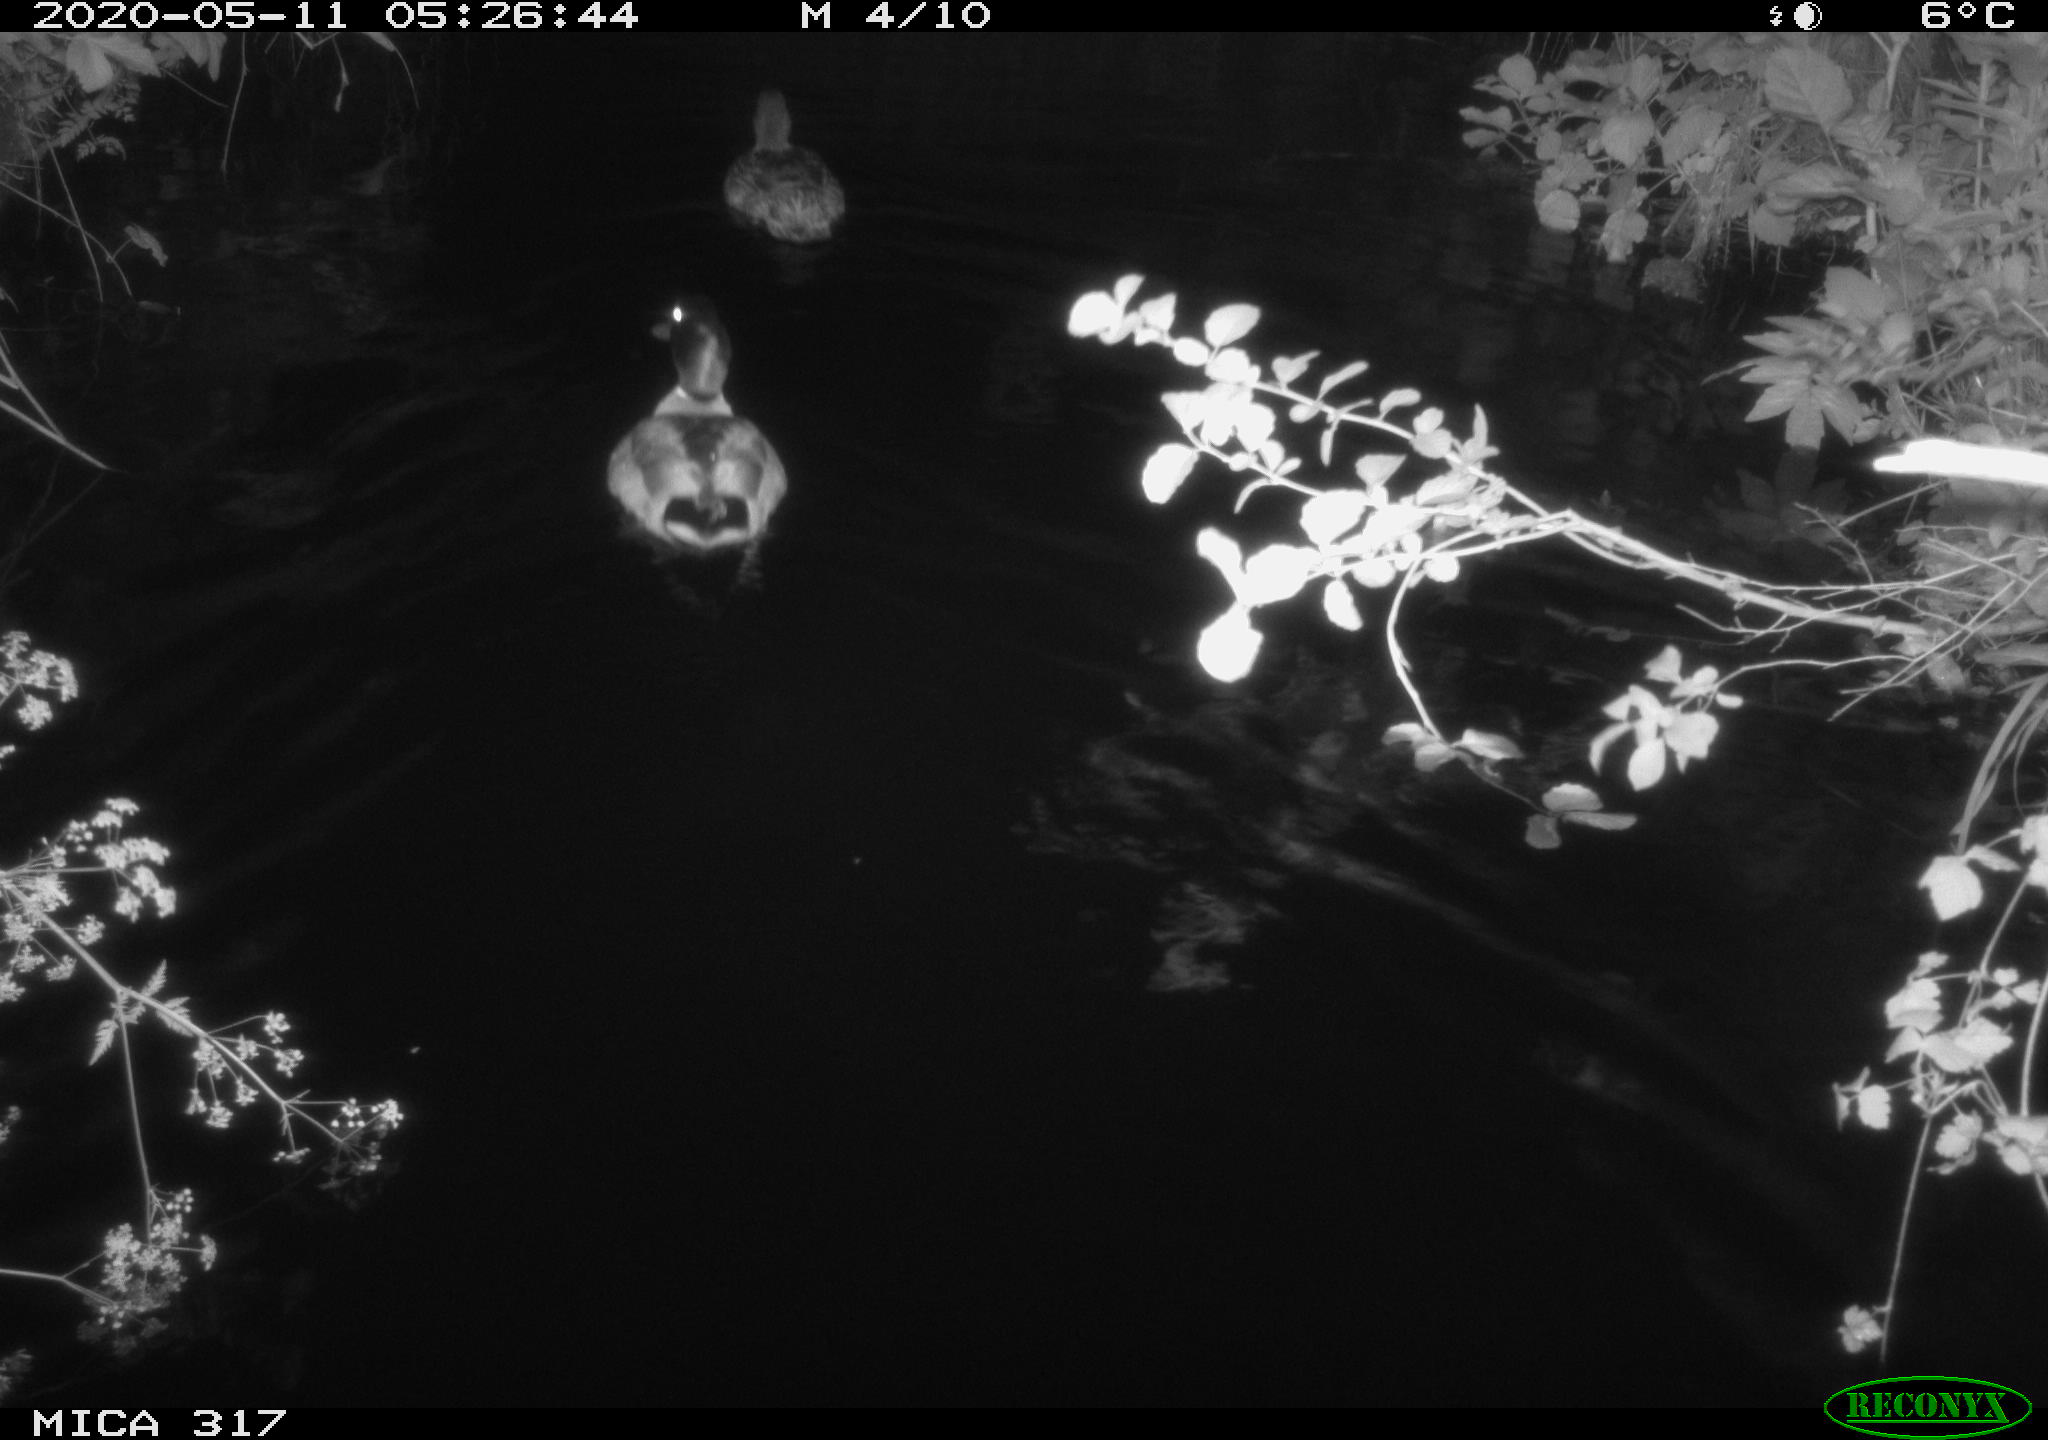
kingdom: Animalia
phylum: Chordata
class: Aves
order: Anseriformes
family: Anatidae
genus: Anas
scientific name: Anas platyrhynchos
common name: Mallard
